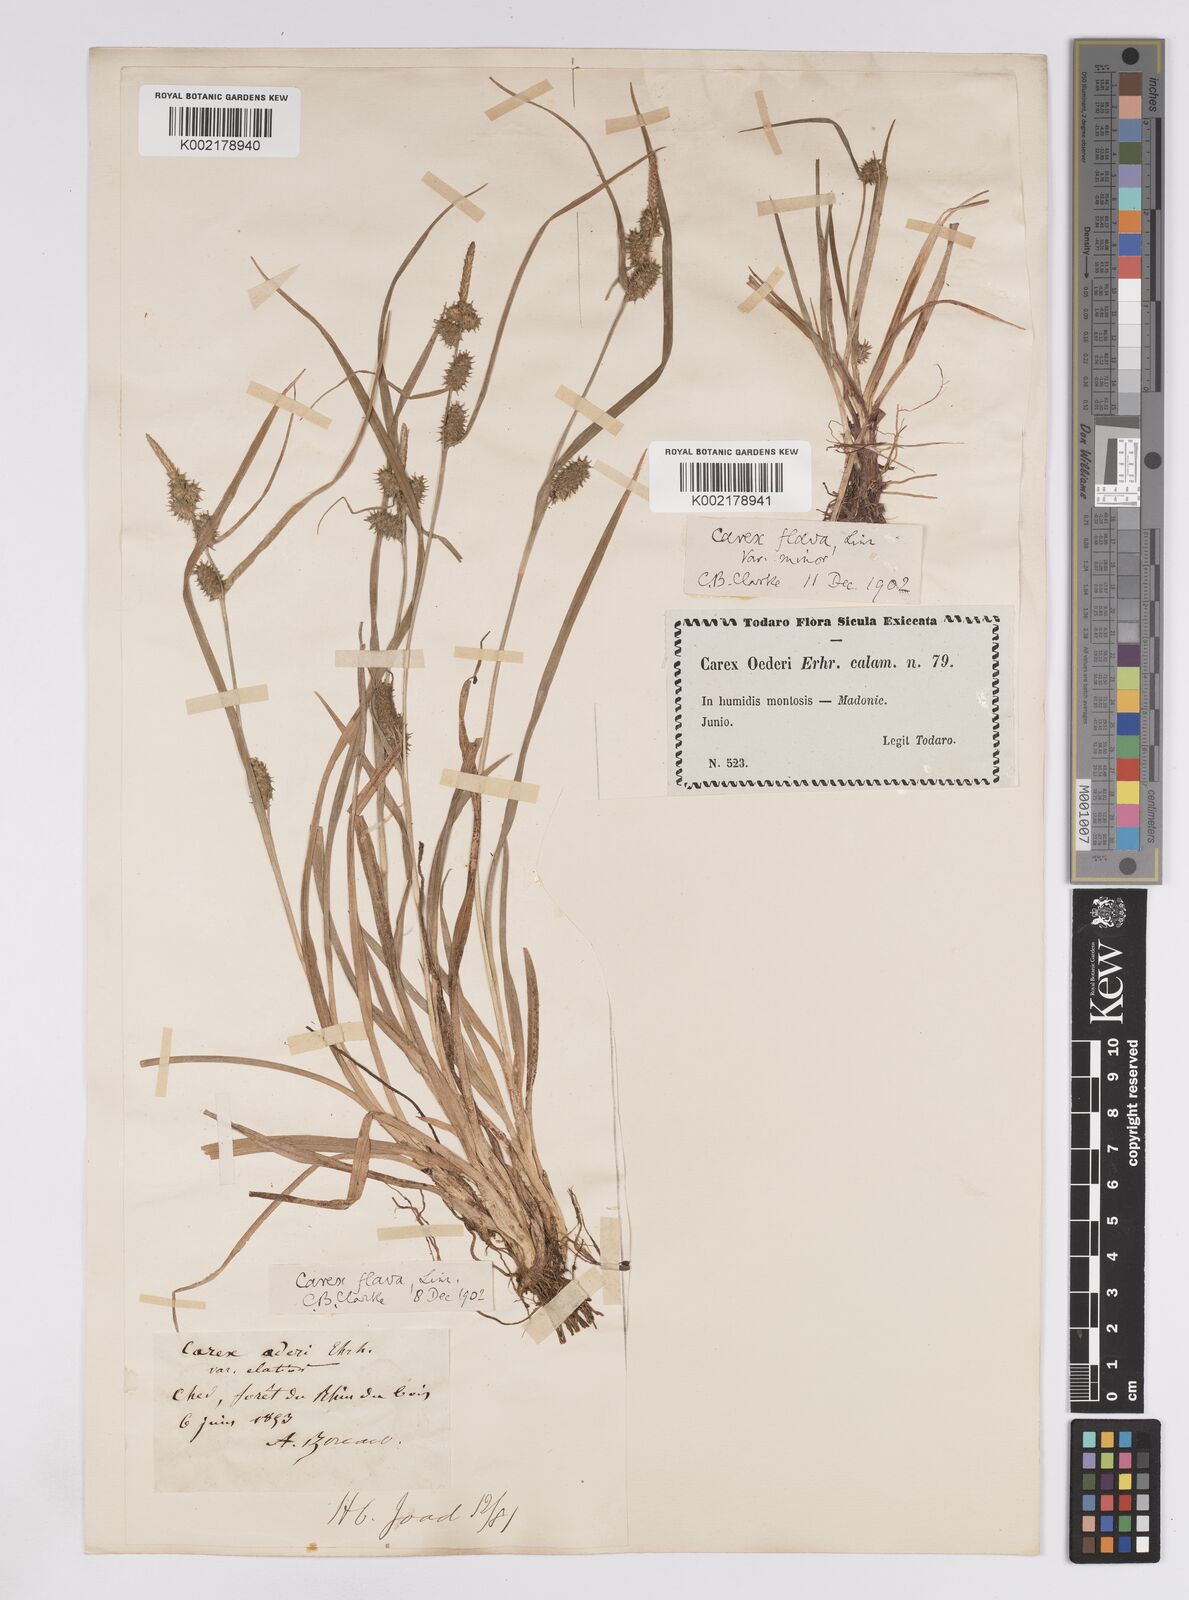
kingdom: Plantae
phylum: Tracheophyta
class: Liliopsida
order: Poales
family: Cyperaceae
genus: Carex
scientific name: Carex lepidocarpa
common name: Long-stalked yellow-sedge
